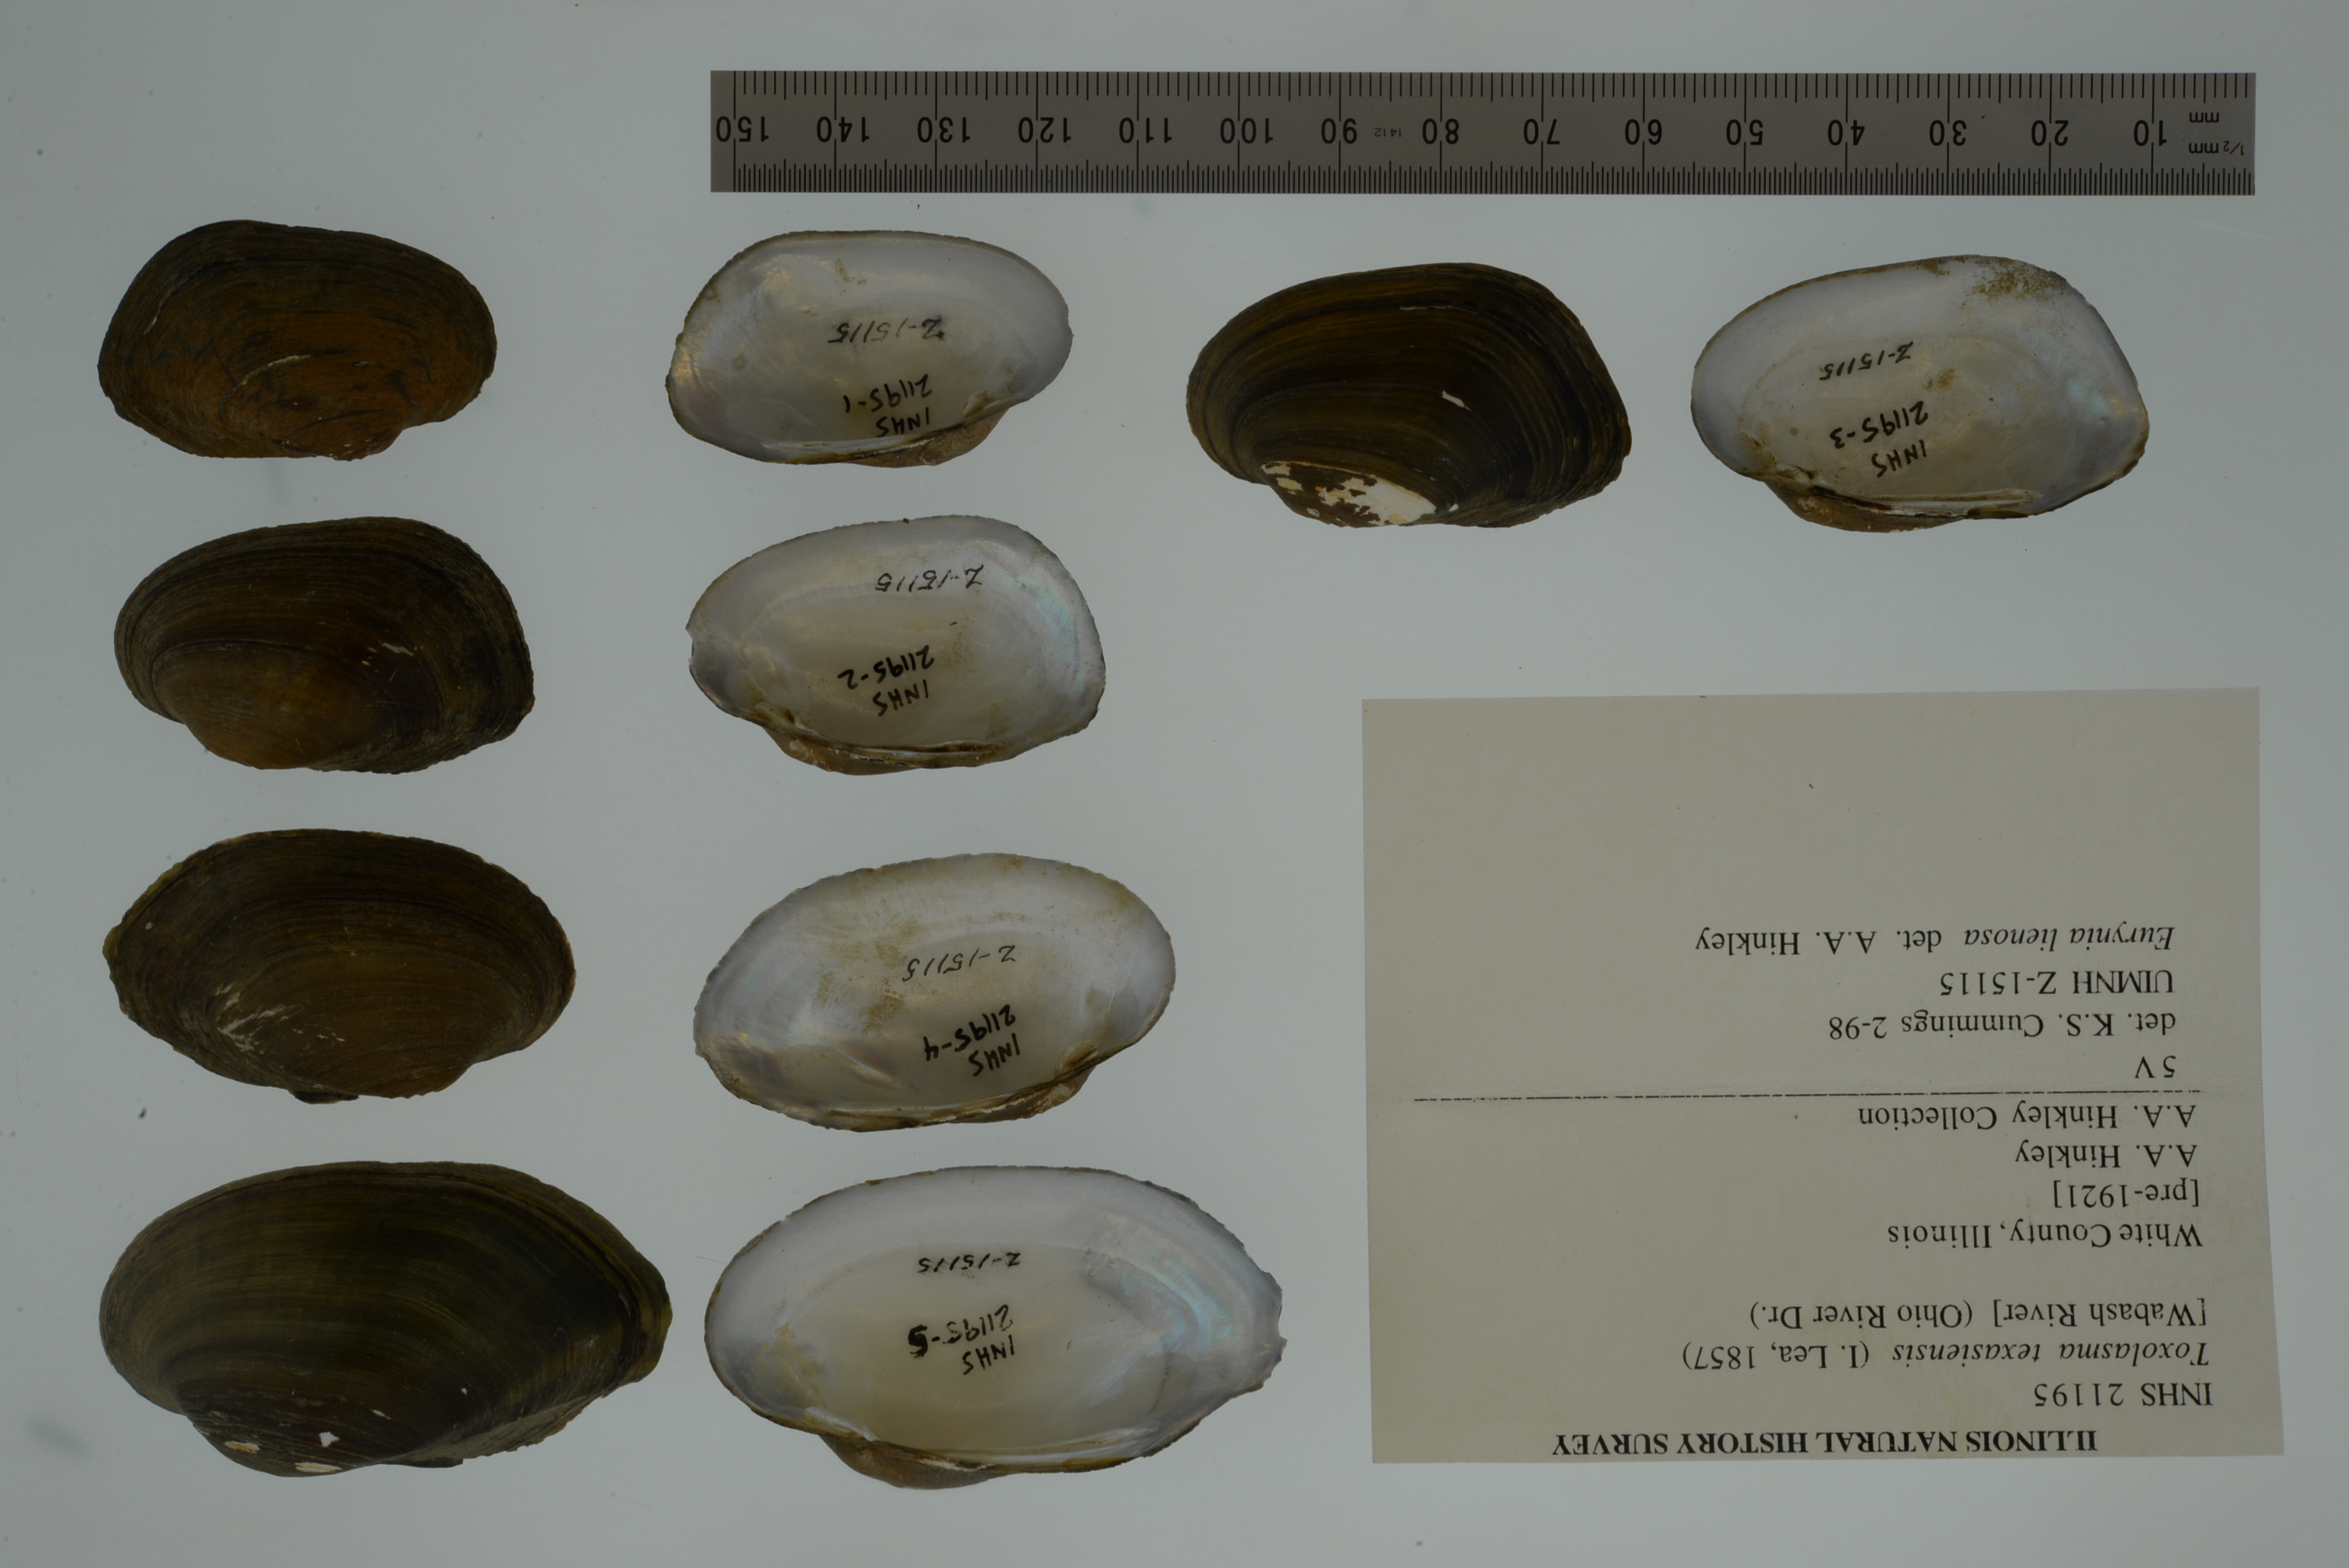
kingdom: Animalia
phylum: Mollusca
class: Bivalvia
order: Unionida
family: Unionidae
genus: Toxolasma
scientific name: Toxolasma texasiense
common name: Texas lilliput
